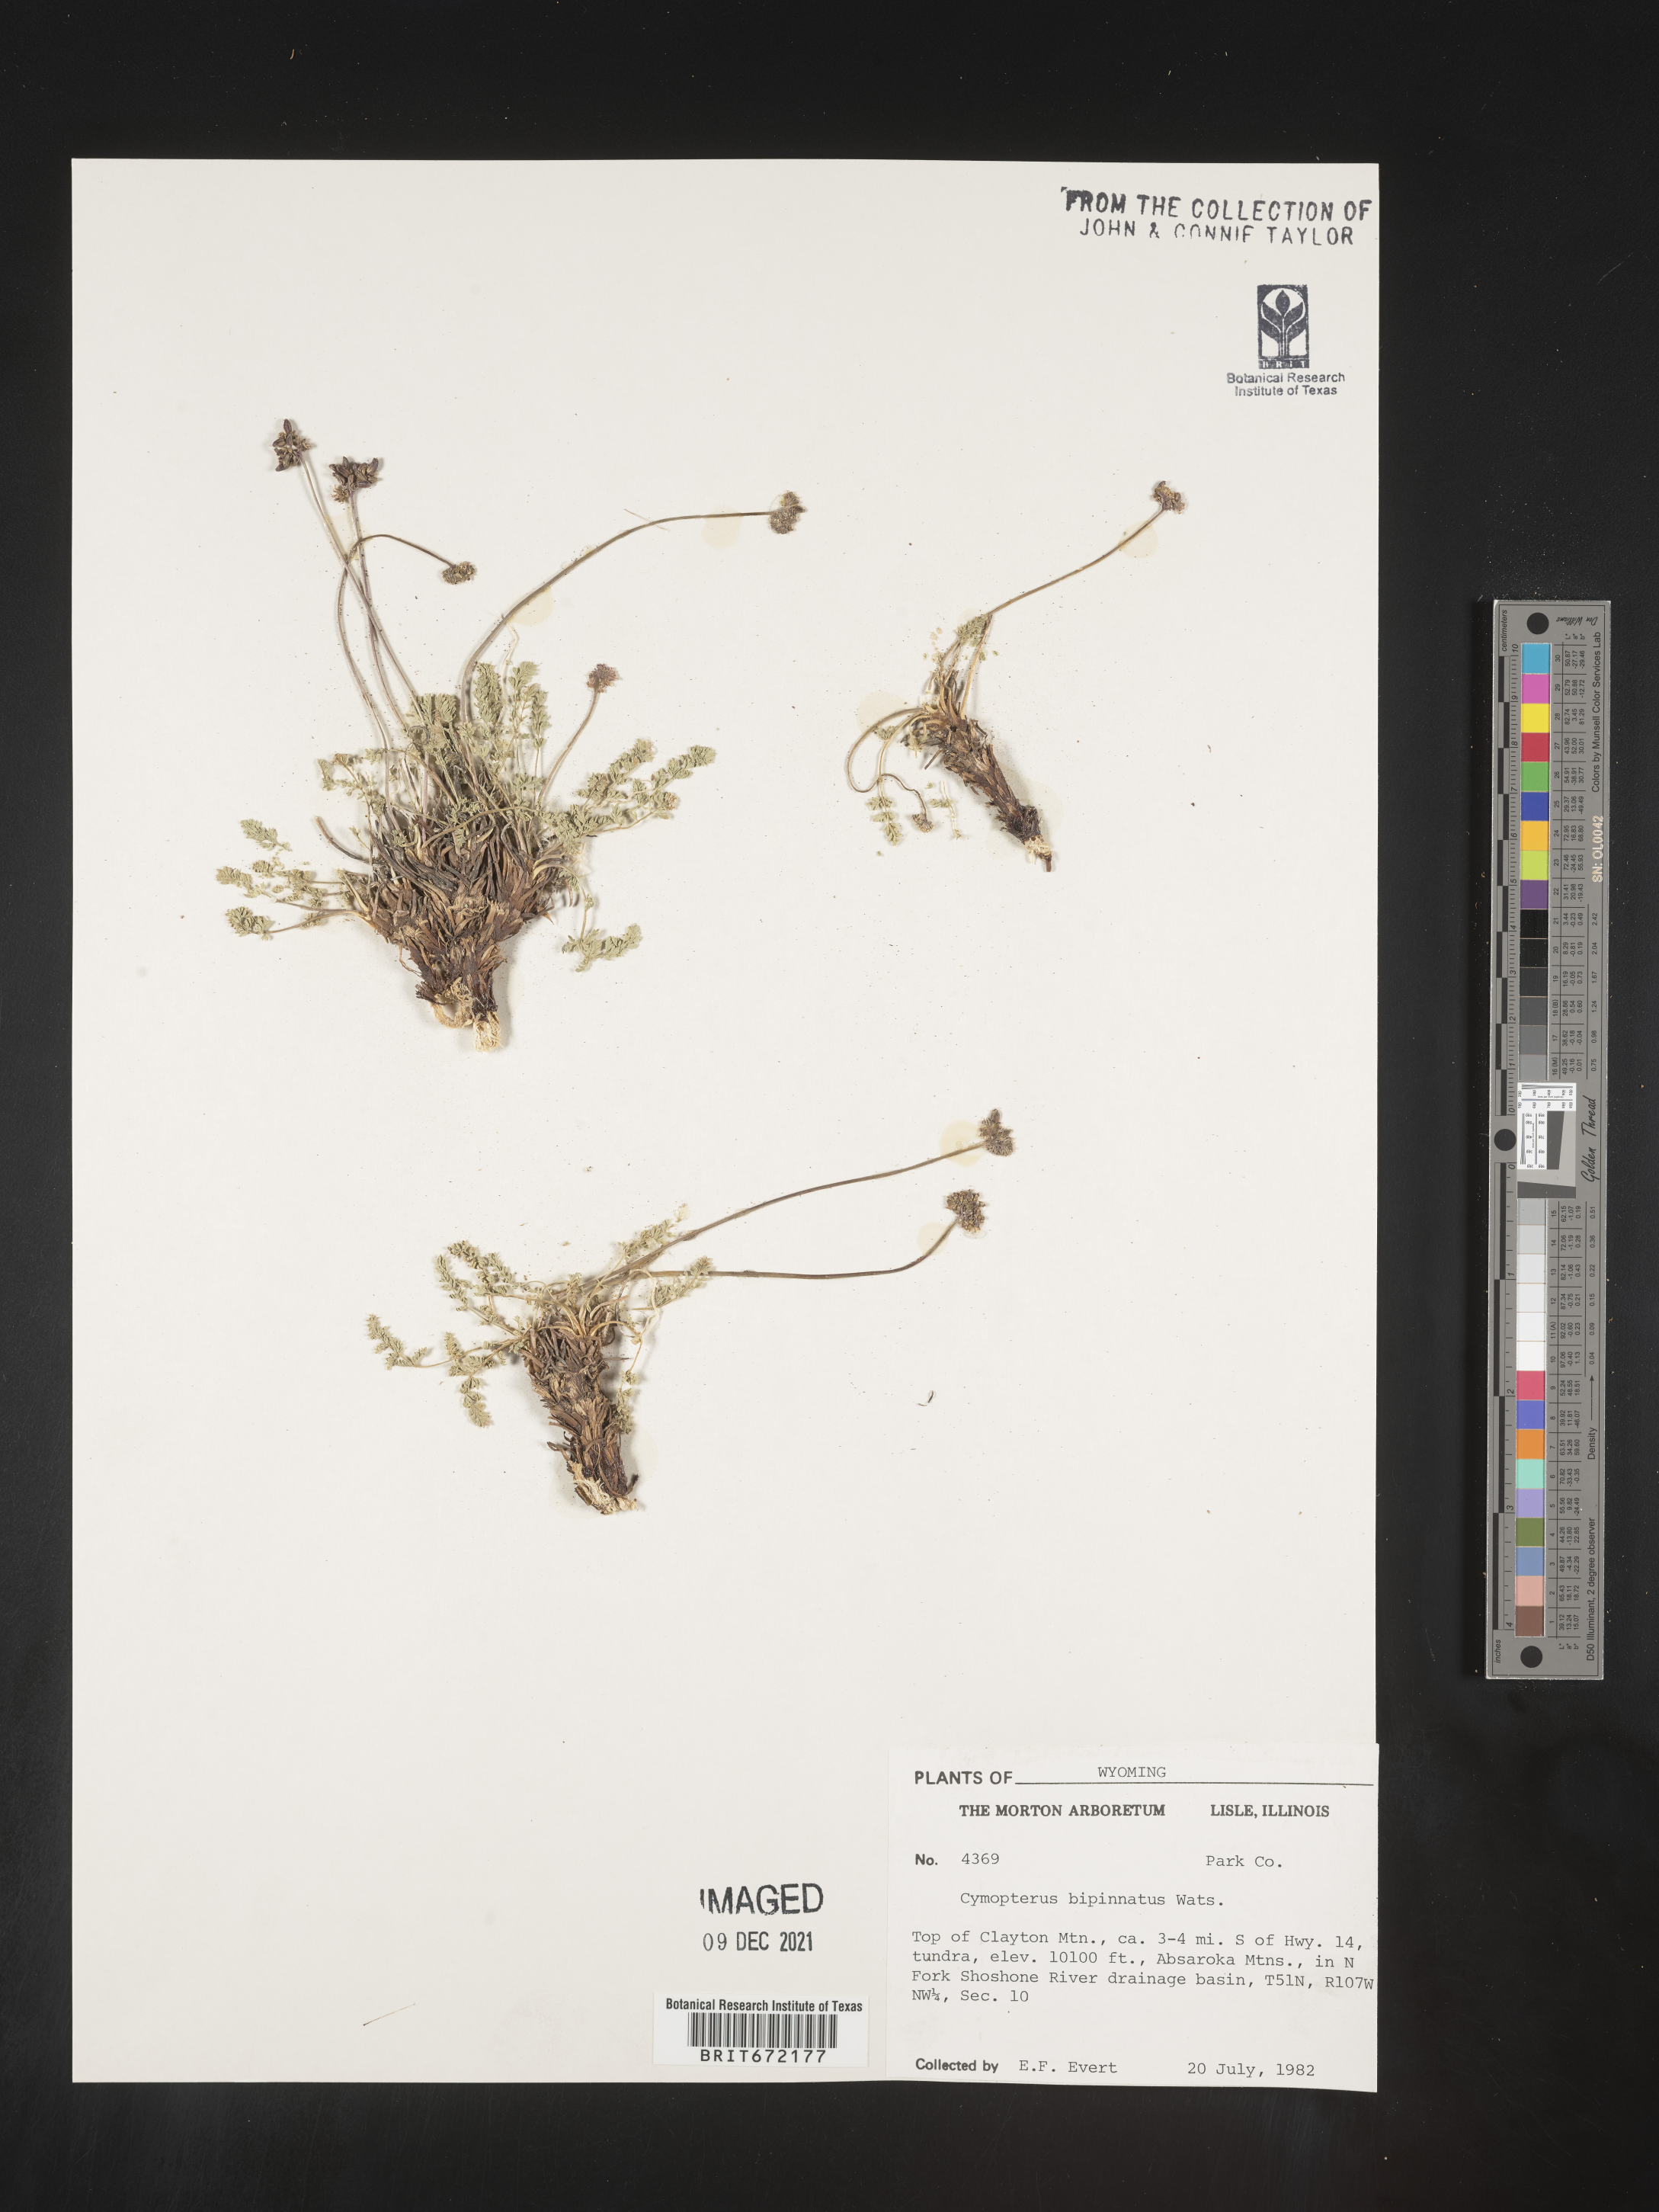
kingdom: Plantae
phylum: Tracheophyta
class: Magnoliopsida
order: Apiales
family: Apiaceae
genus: Pseudocymopterus
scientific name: Pseudocymopterus nivalis
